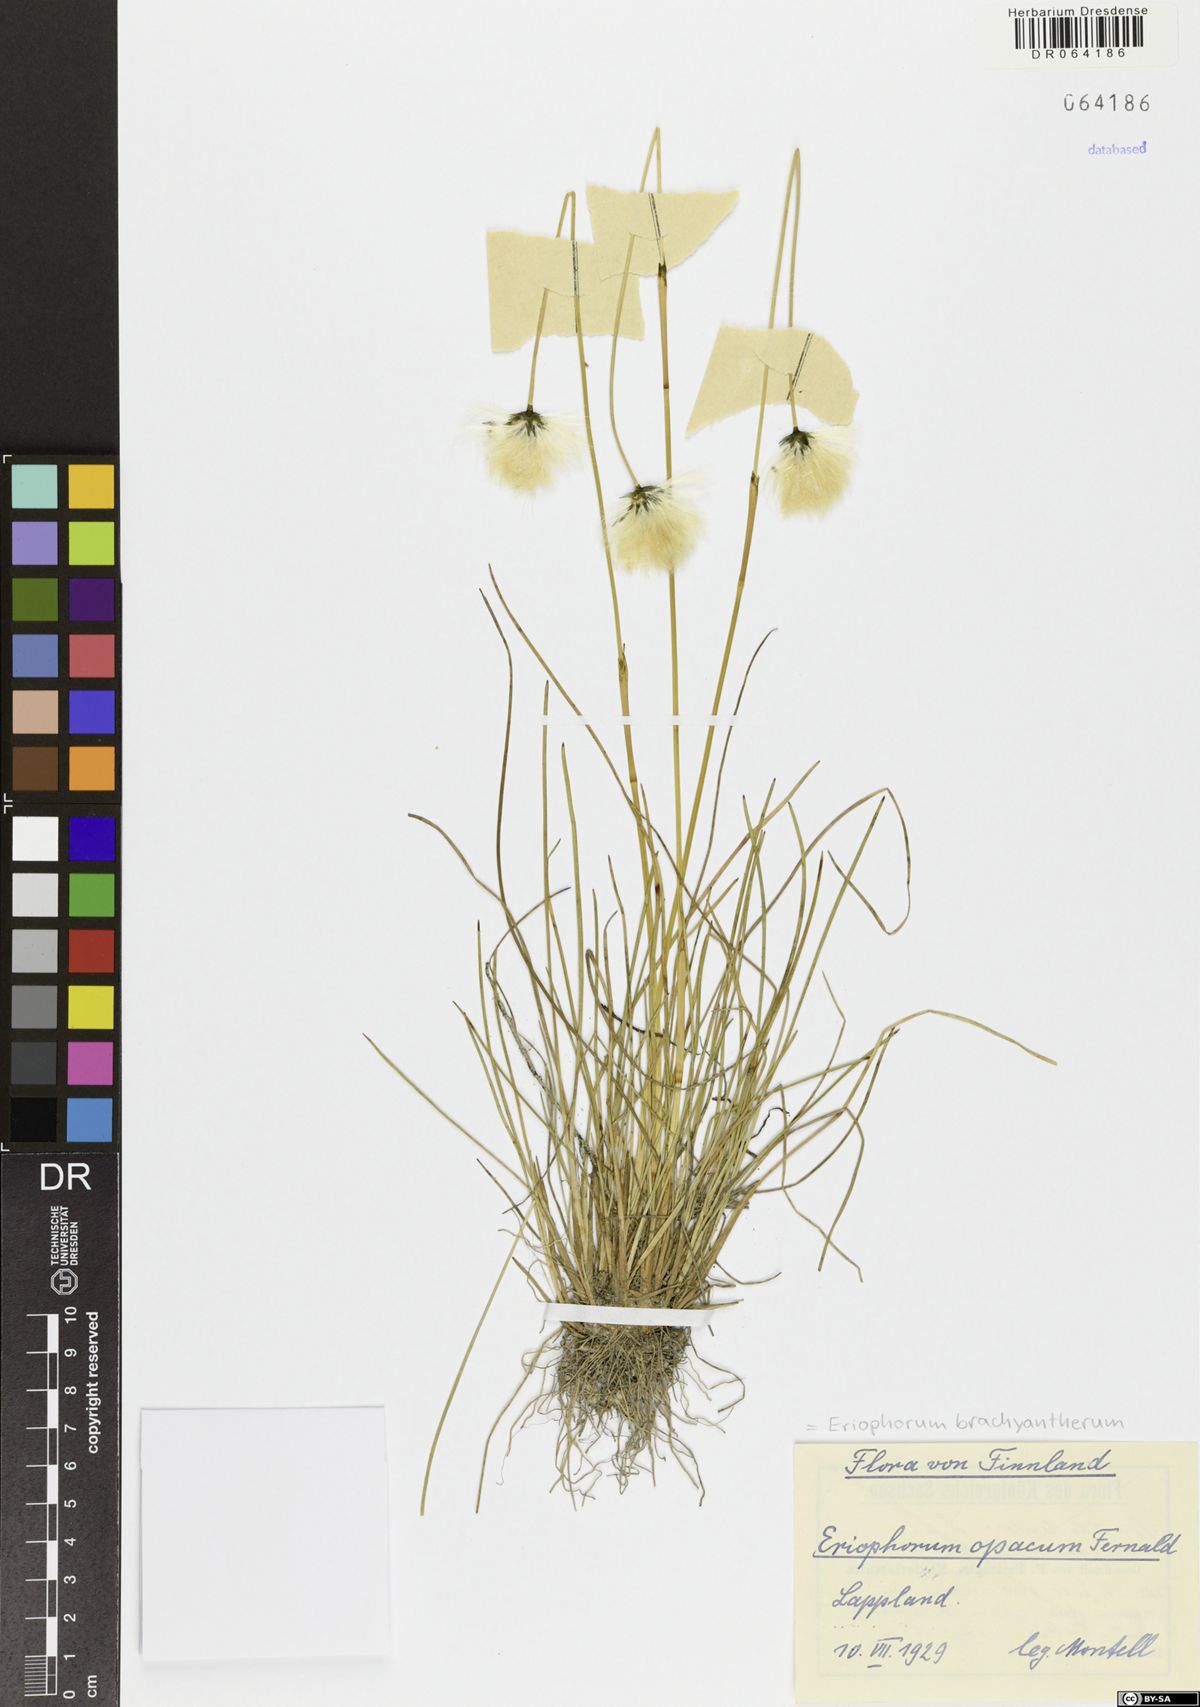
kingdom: Plantae
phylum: Tracheophyta
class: Liliopsida
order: Poales
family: Cyperaceae
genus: Eriophorum
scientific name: Eriophorum brachyantherum
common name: Closed-sheathed cottongrass
